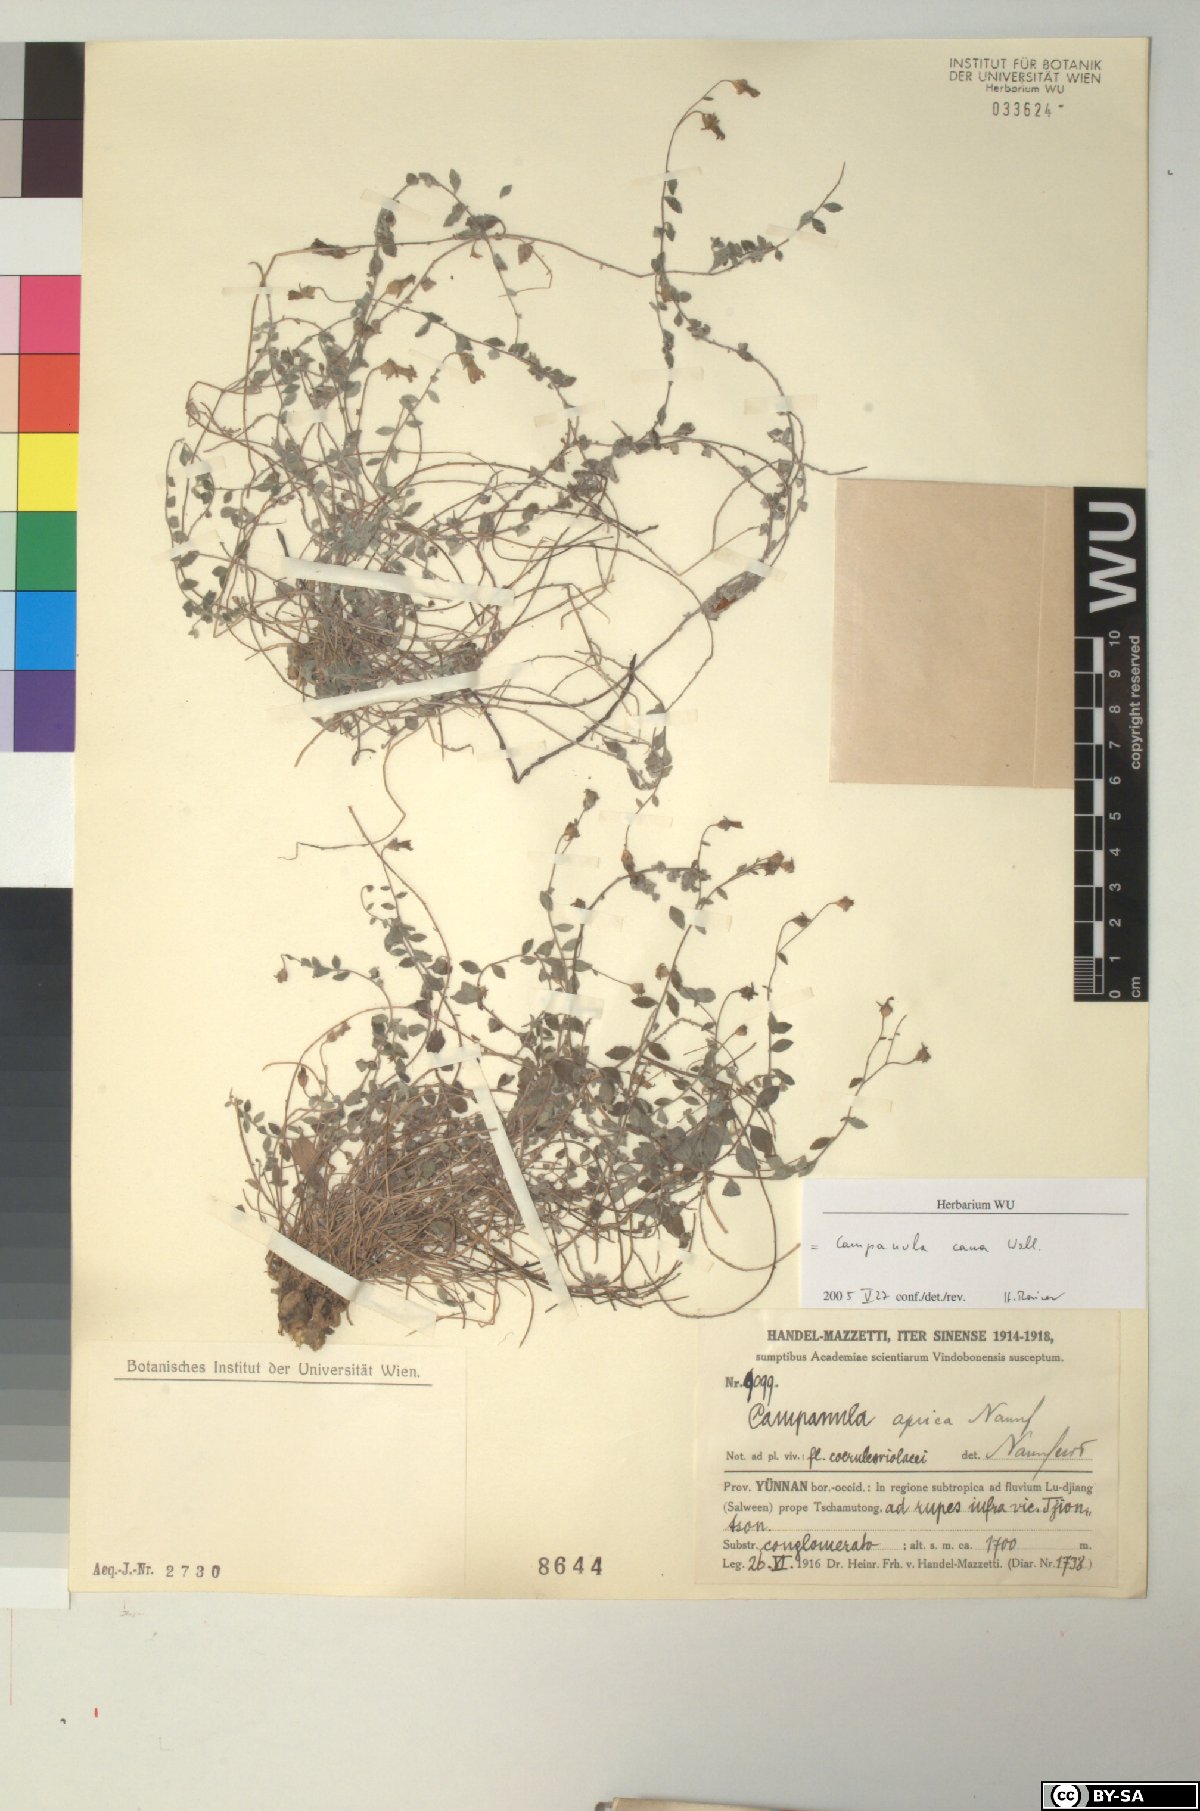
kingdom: Plantae
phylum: Tracheophyta
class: Magnoliopsida
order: Asterales
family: Campanulaceae
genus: Campanula
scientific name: Campanula cana
